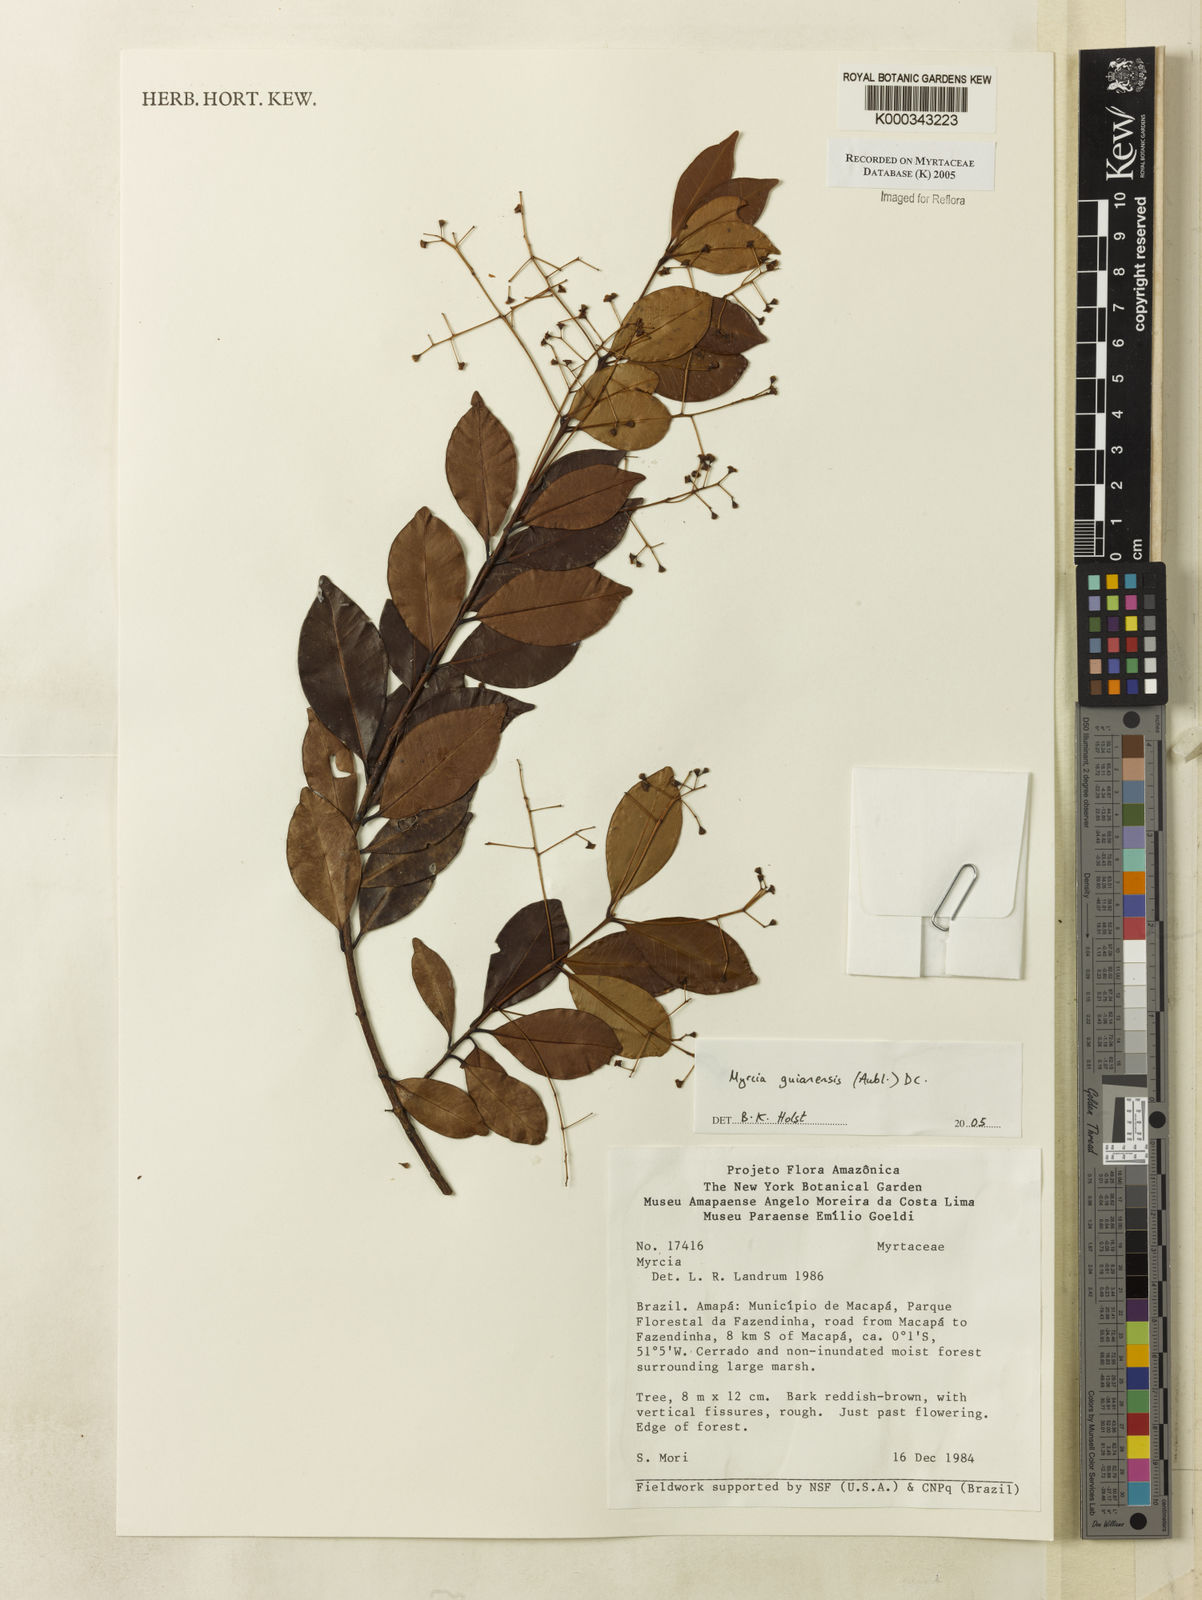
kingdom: Plantae
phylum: Tracheophyta
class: Magnoliopsida
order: Myrtales
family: Myrtaceae
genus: Myrcia
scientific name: Myrcia guianensis
